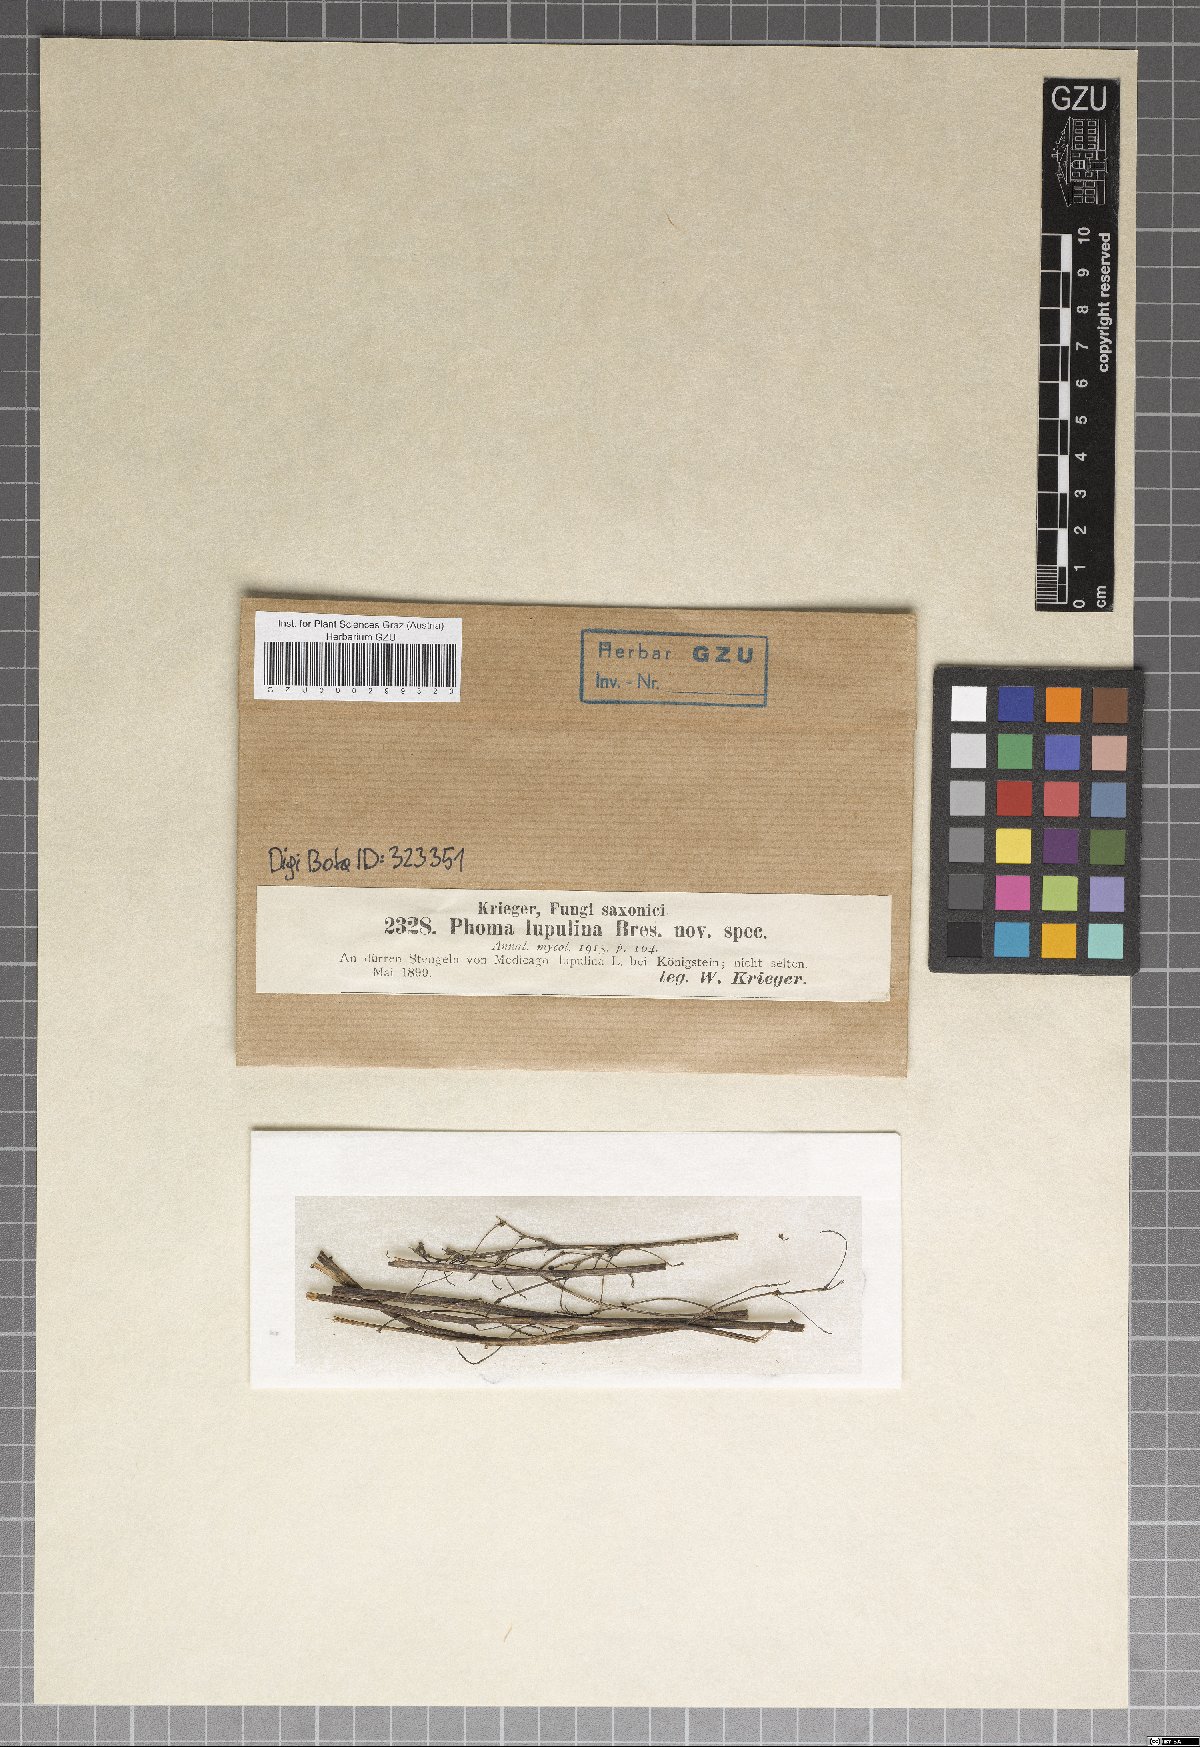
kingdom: Fungi
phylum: Ascomycota
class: Dothideomycetes
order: Pleosporales
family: Didymellaceae
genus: Phoma
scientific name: Phoma lupulina
